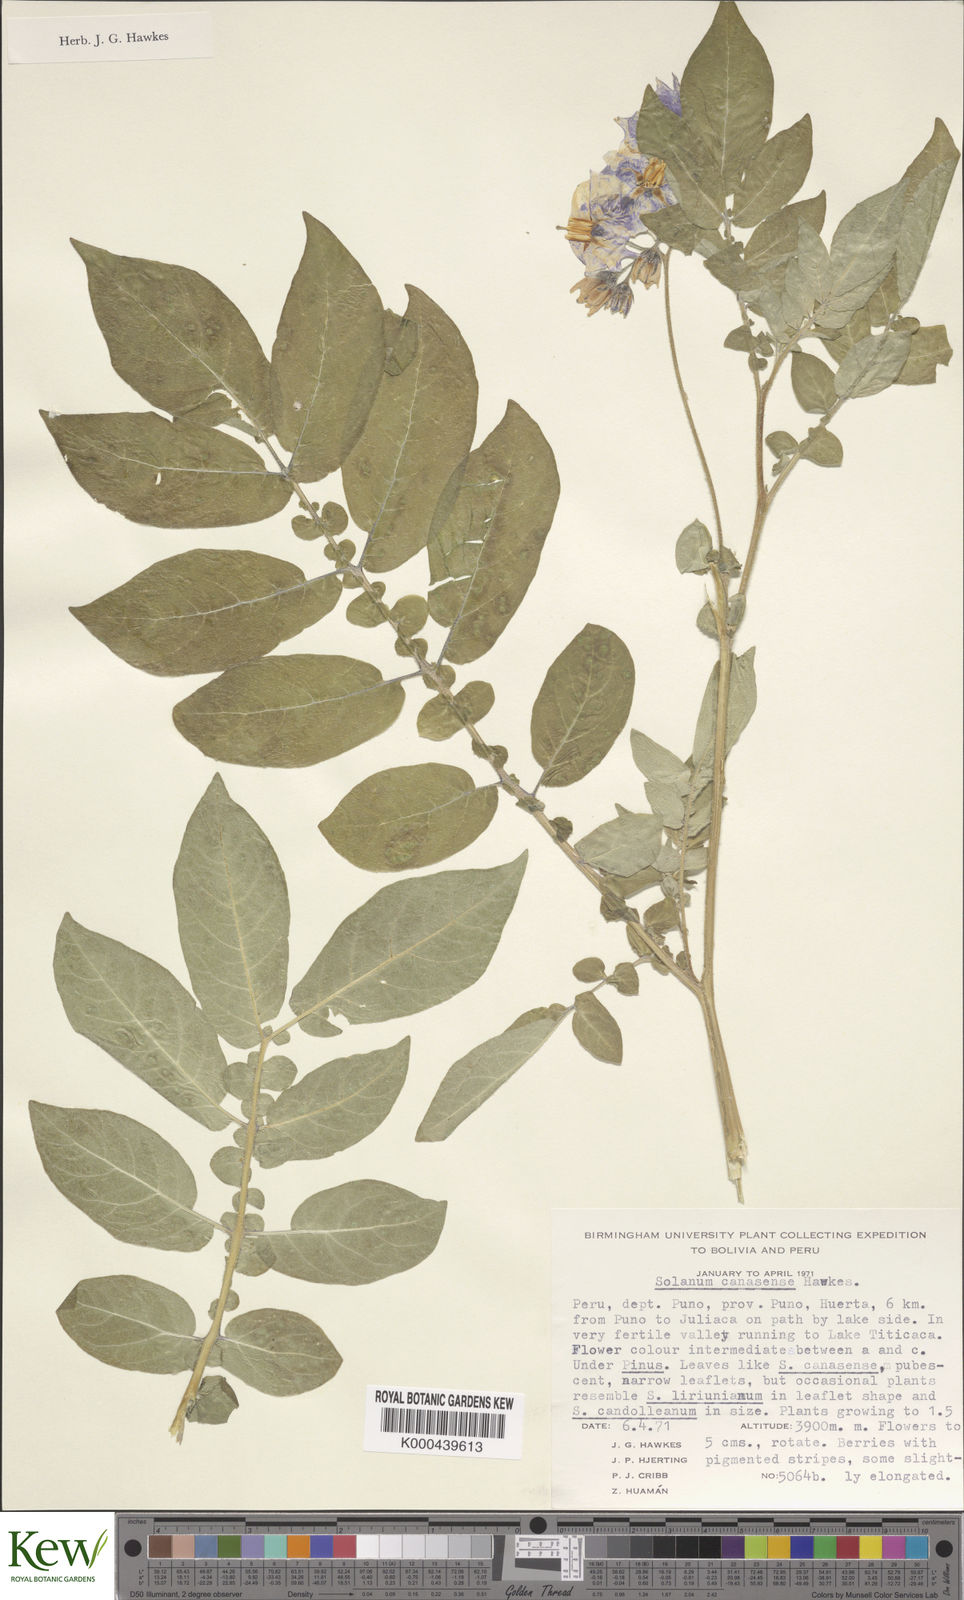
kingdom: Plantae
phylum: Tracheophyta
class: Magnoliopsida
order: Solanales
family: Solanaceae
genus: Solanum
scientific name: Solanum candolleanum
